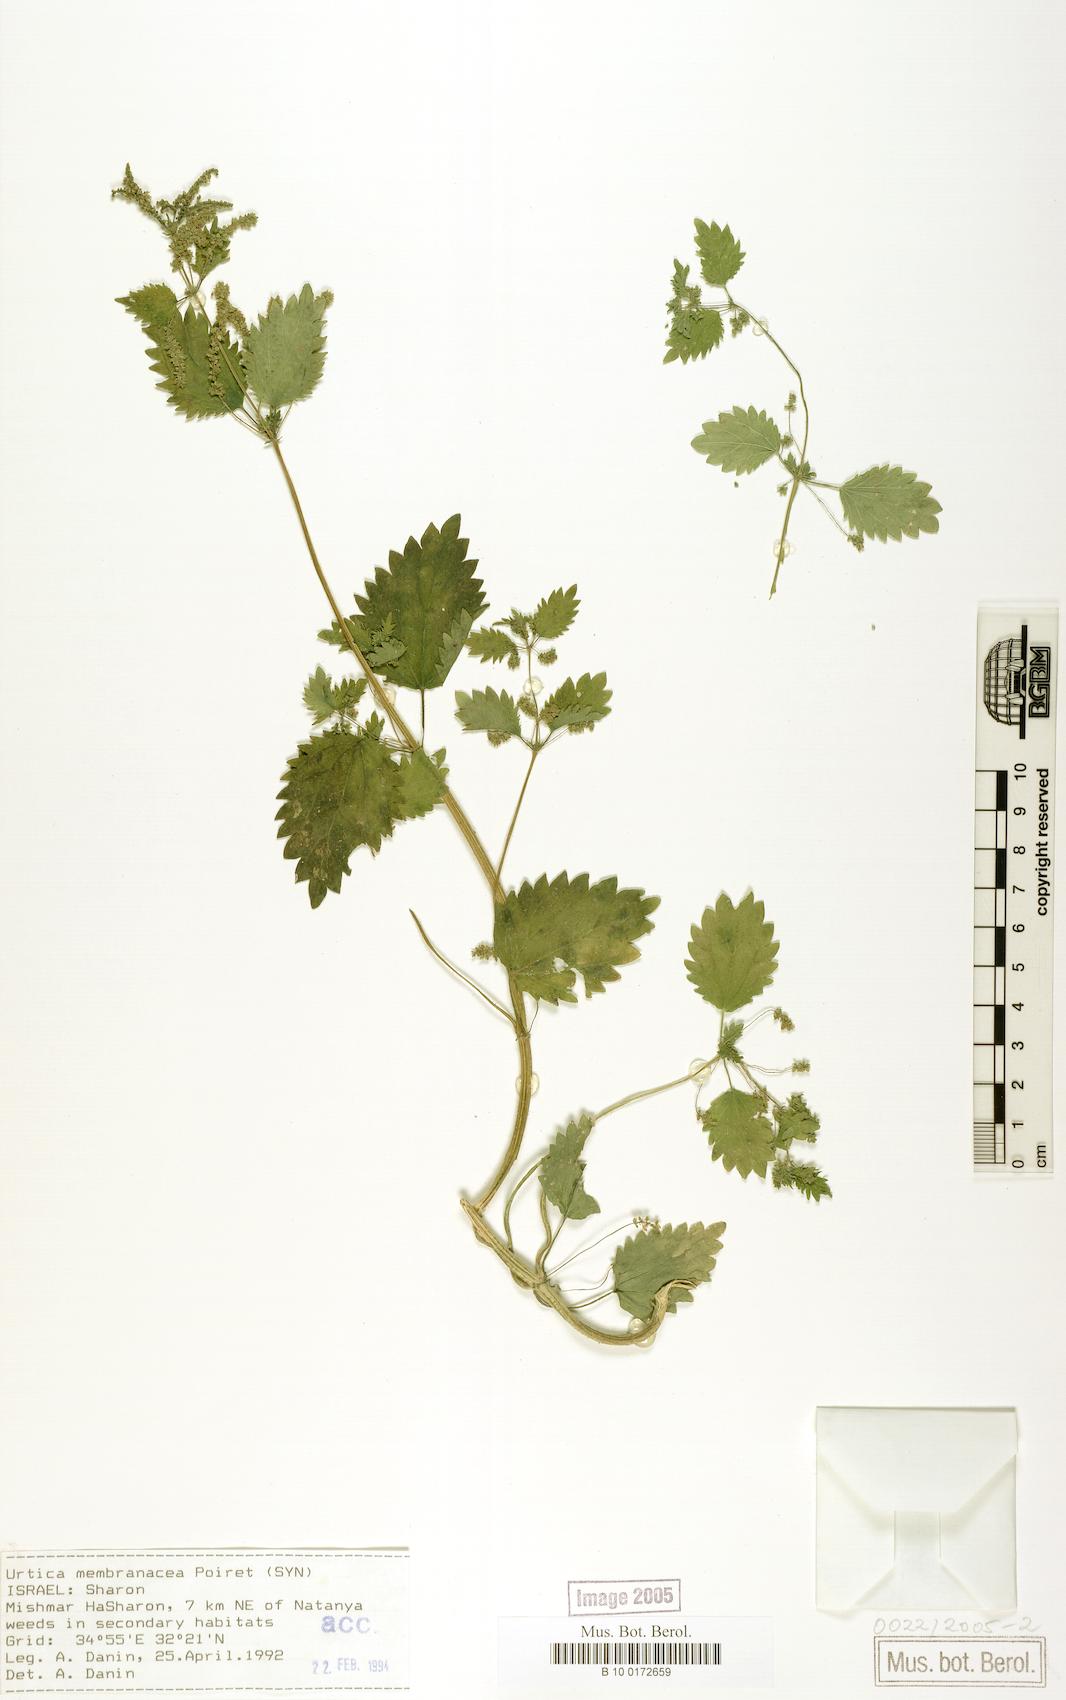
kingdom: Plantae
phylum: Tracheophyta
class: Magnoliopsida
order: Rosales
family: Urticaceae
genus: Urtica
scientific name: Urtica membranacea
